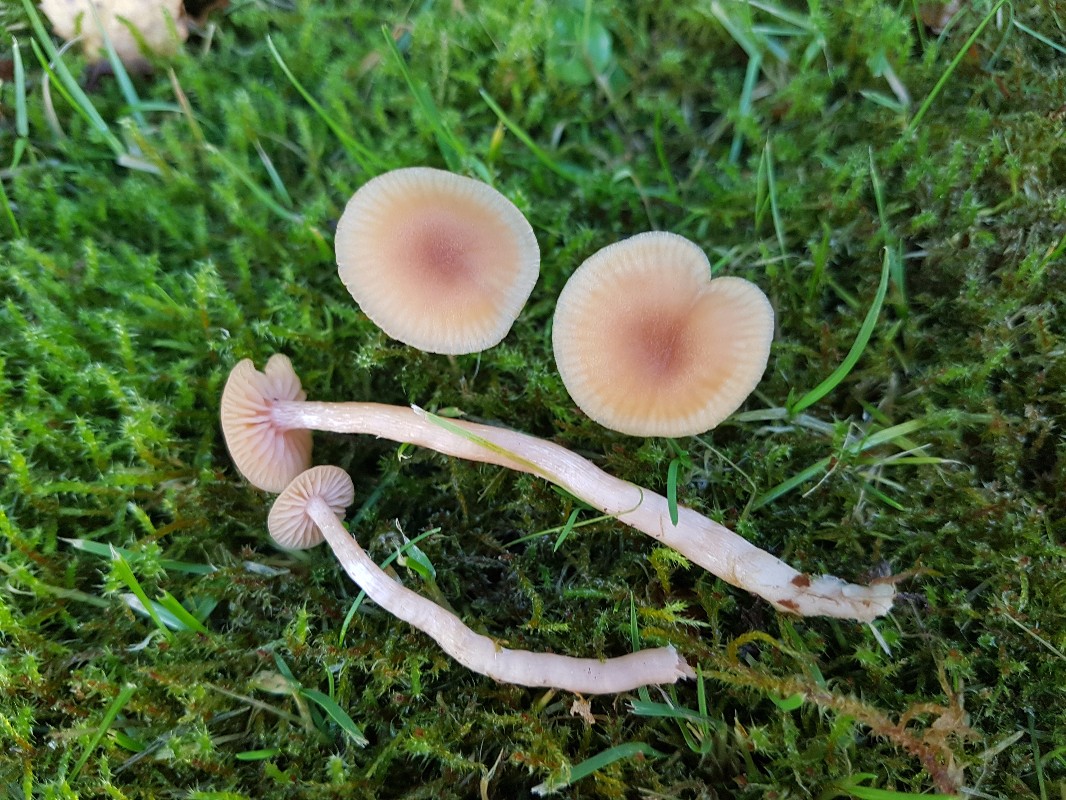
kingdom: Fungi
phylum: Basidiomycota
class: Agaricomycetes
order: Agaricales
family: Hydnangiaceae
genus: Laccaria
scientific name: Laccaria laccata
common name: rød ametysthat
